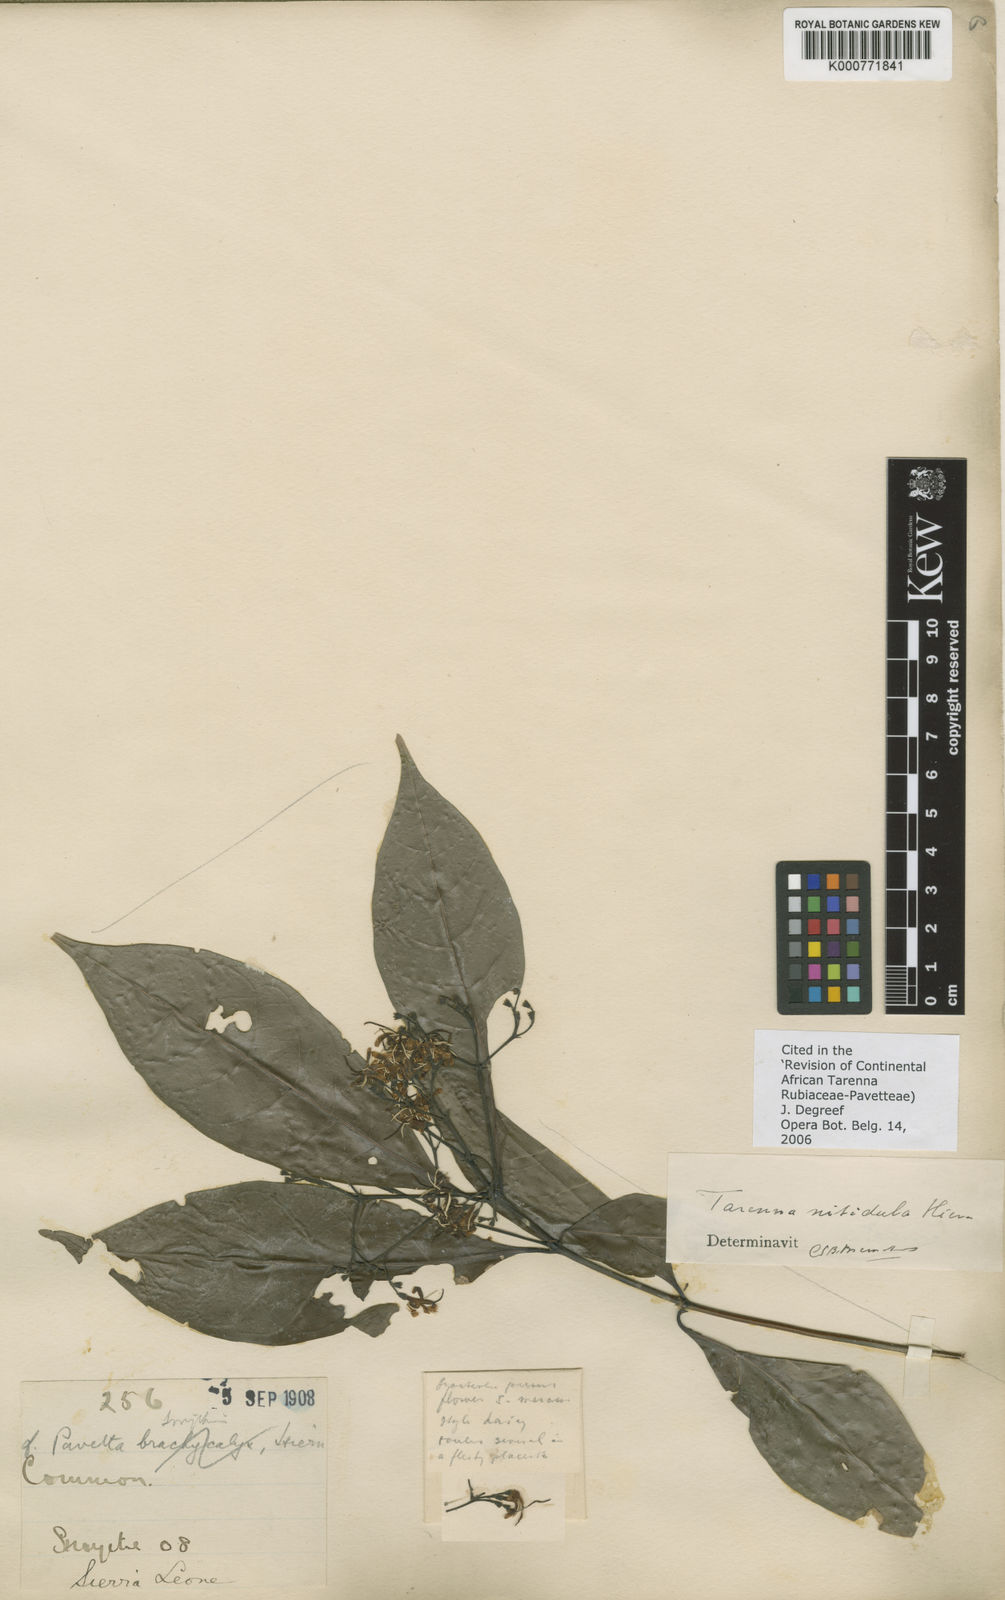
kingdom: Plantae
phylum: Tracheophyta
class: Magnoliopsida
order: Gentianales
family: Rubiaceae
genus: Tarenna
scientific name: Tarenna nitidula
